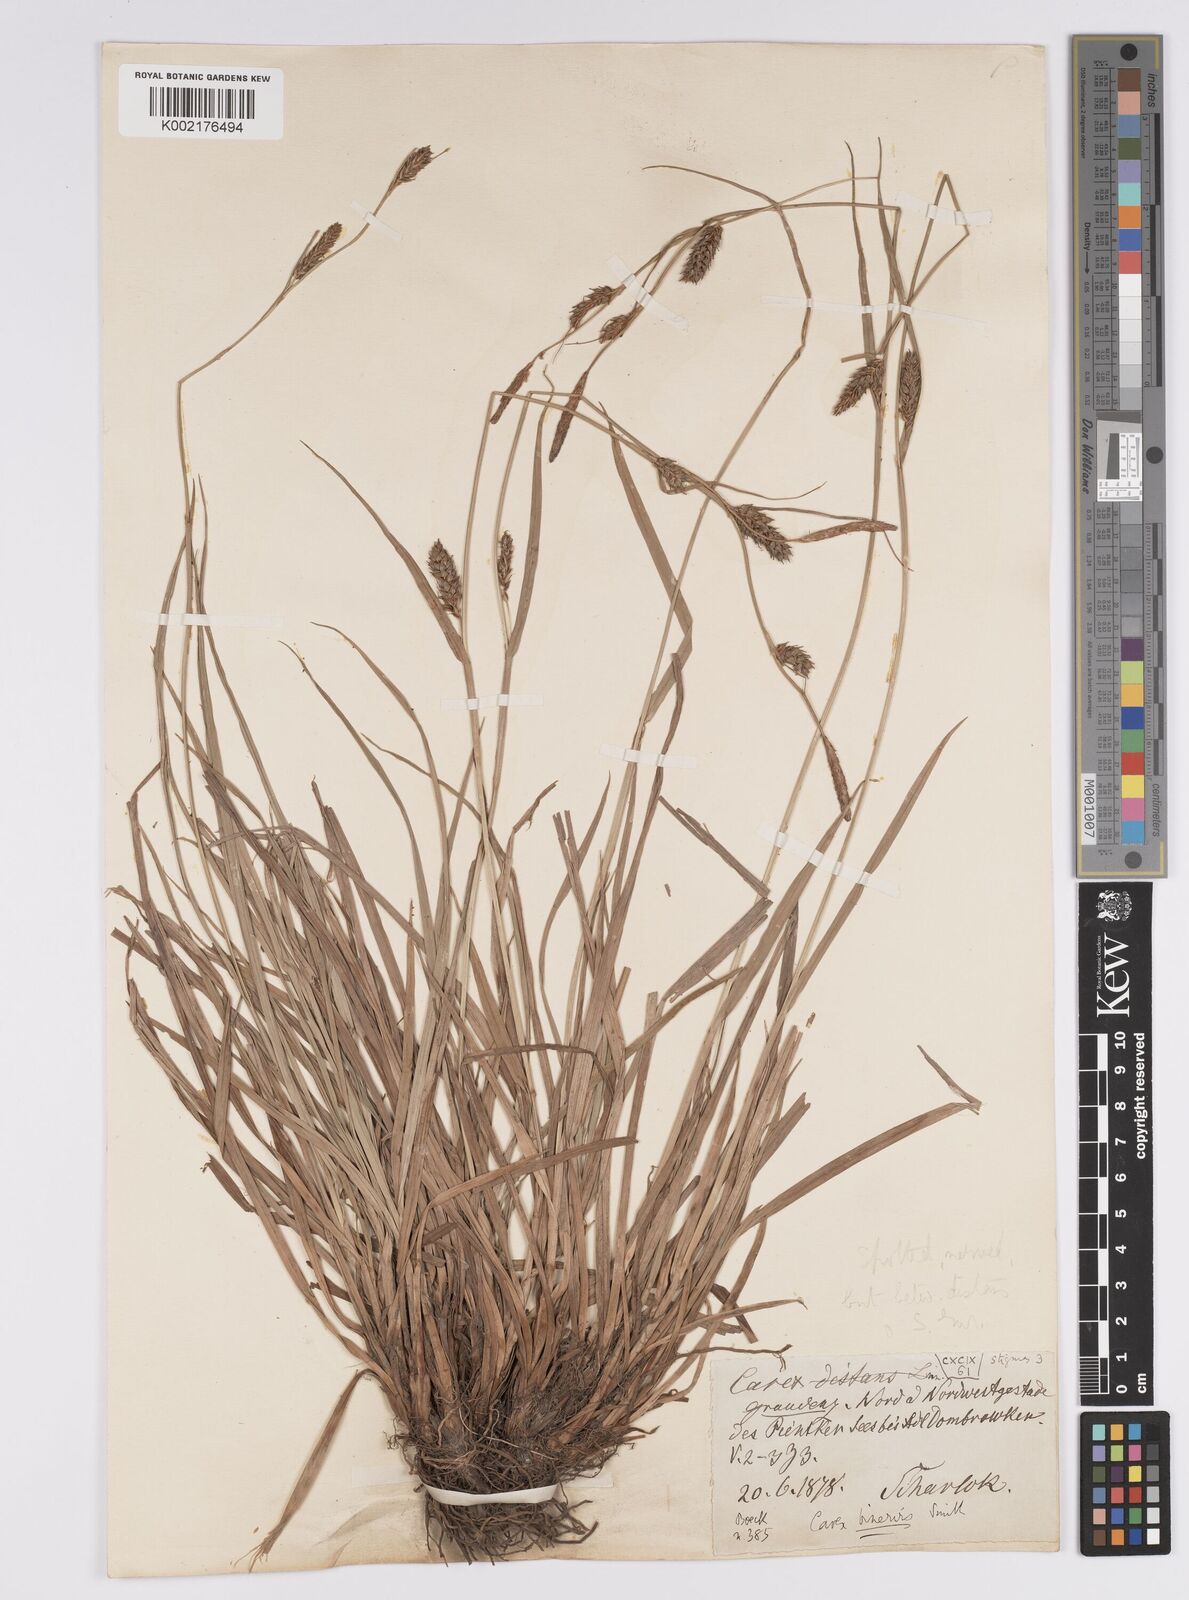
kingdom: Plantae
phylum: Tracheophyta
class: Liliopsida
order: Poales
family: Cyperaceae
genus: Carex
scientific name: Carex distans
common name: Distant sedge
